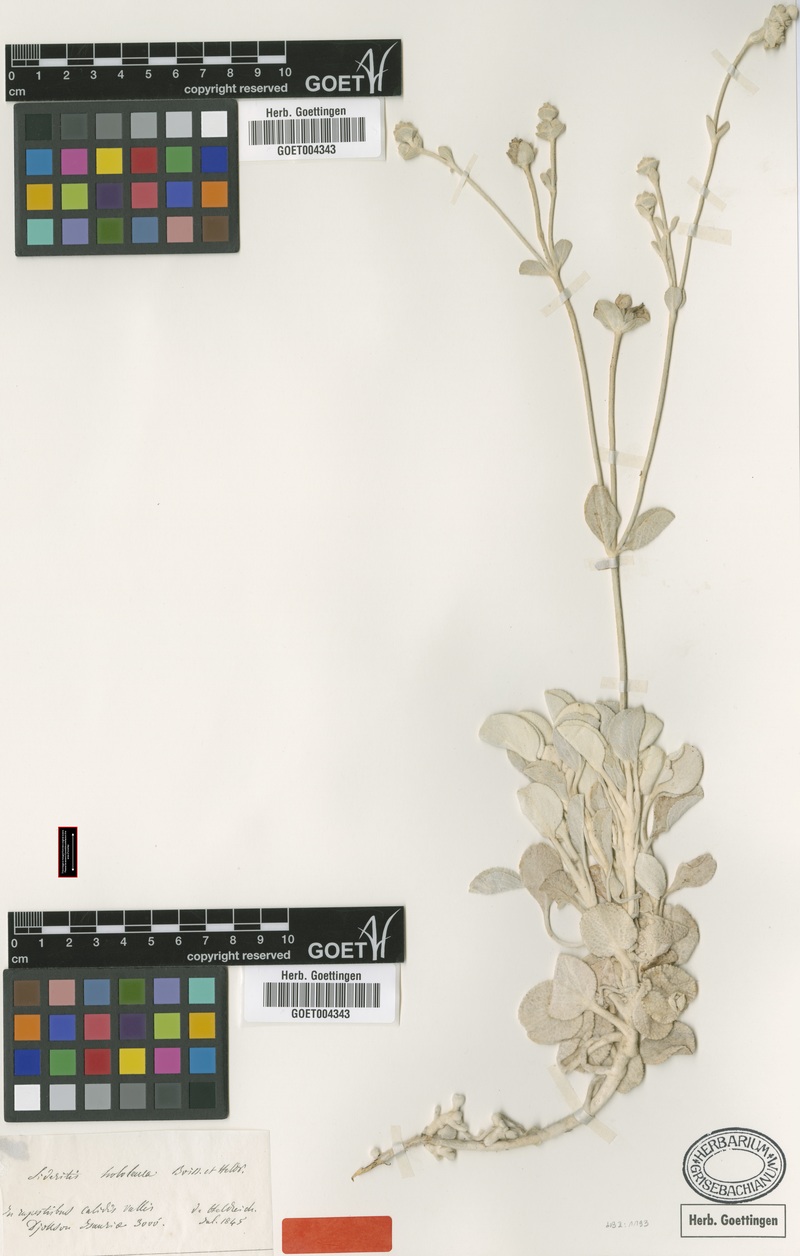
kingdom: Plantae
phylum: Tracheophyta
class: Magnoliopsida
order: Lamiales
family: Lamiaceae
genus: Sideritis
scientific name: Sideritis hololeuca
